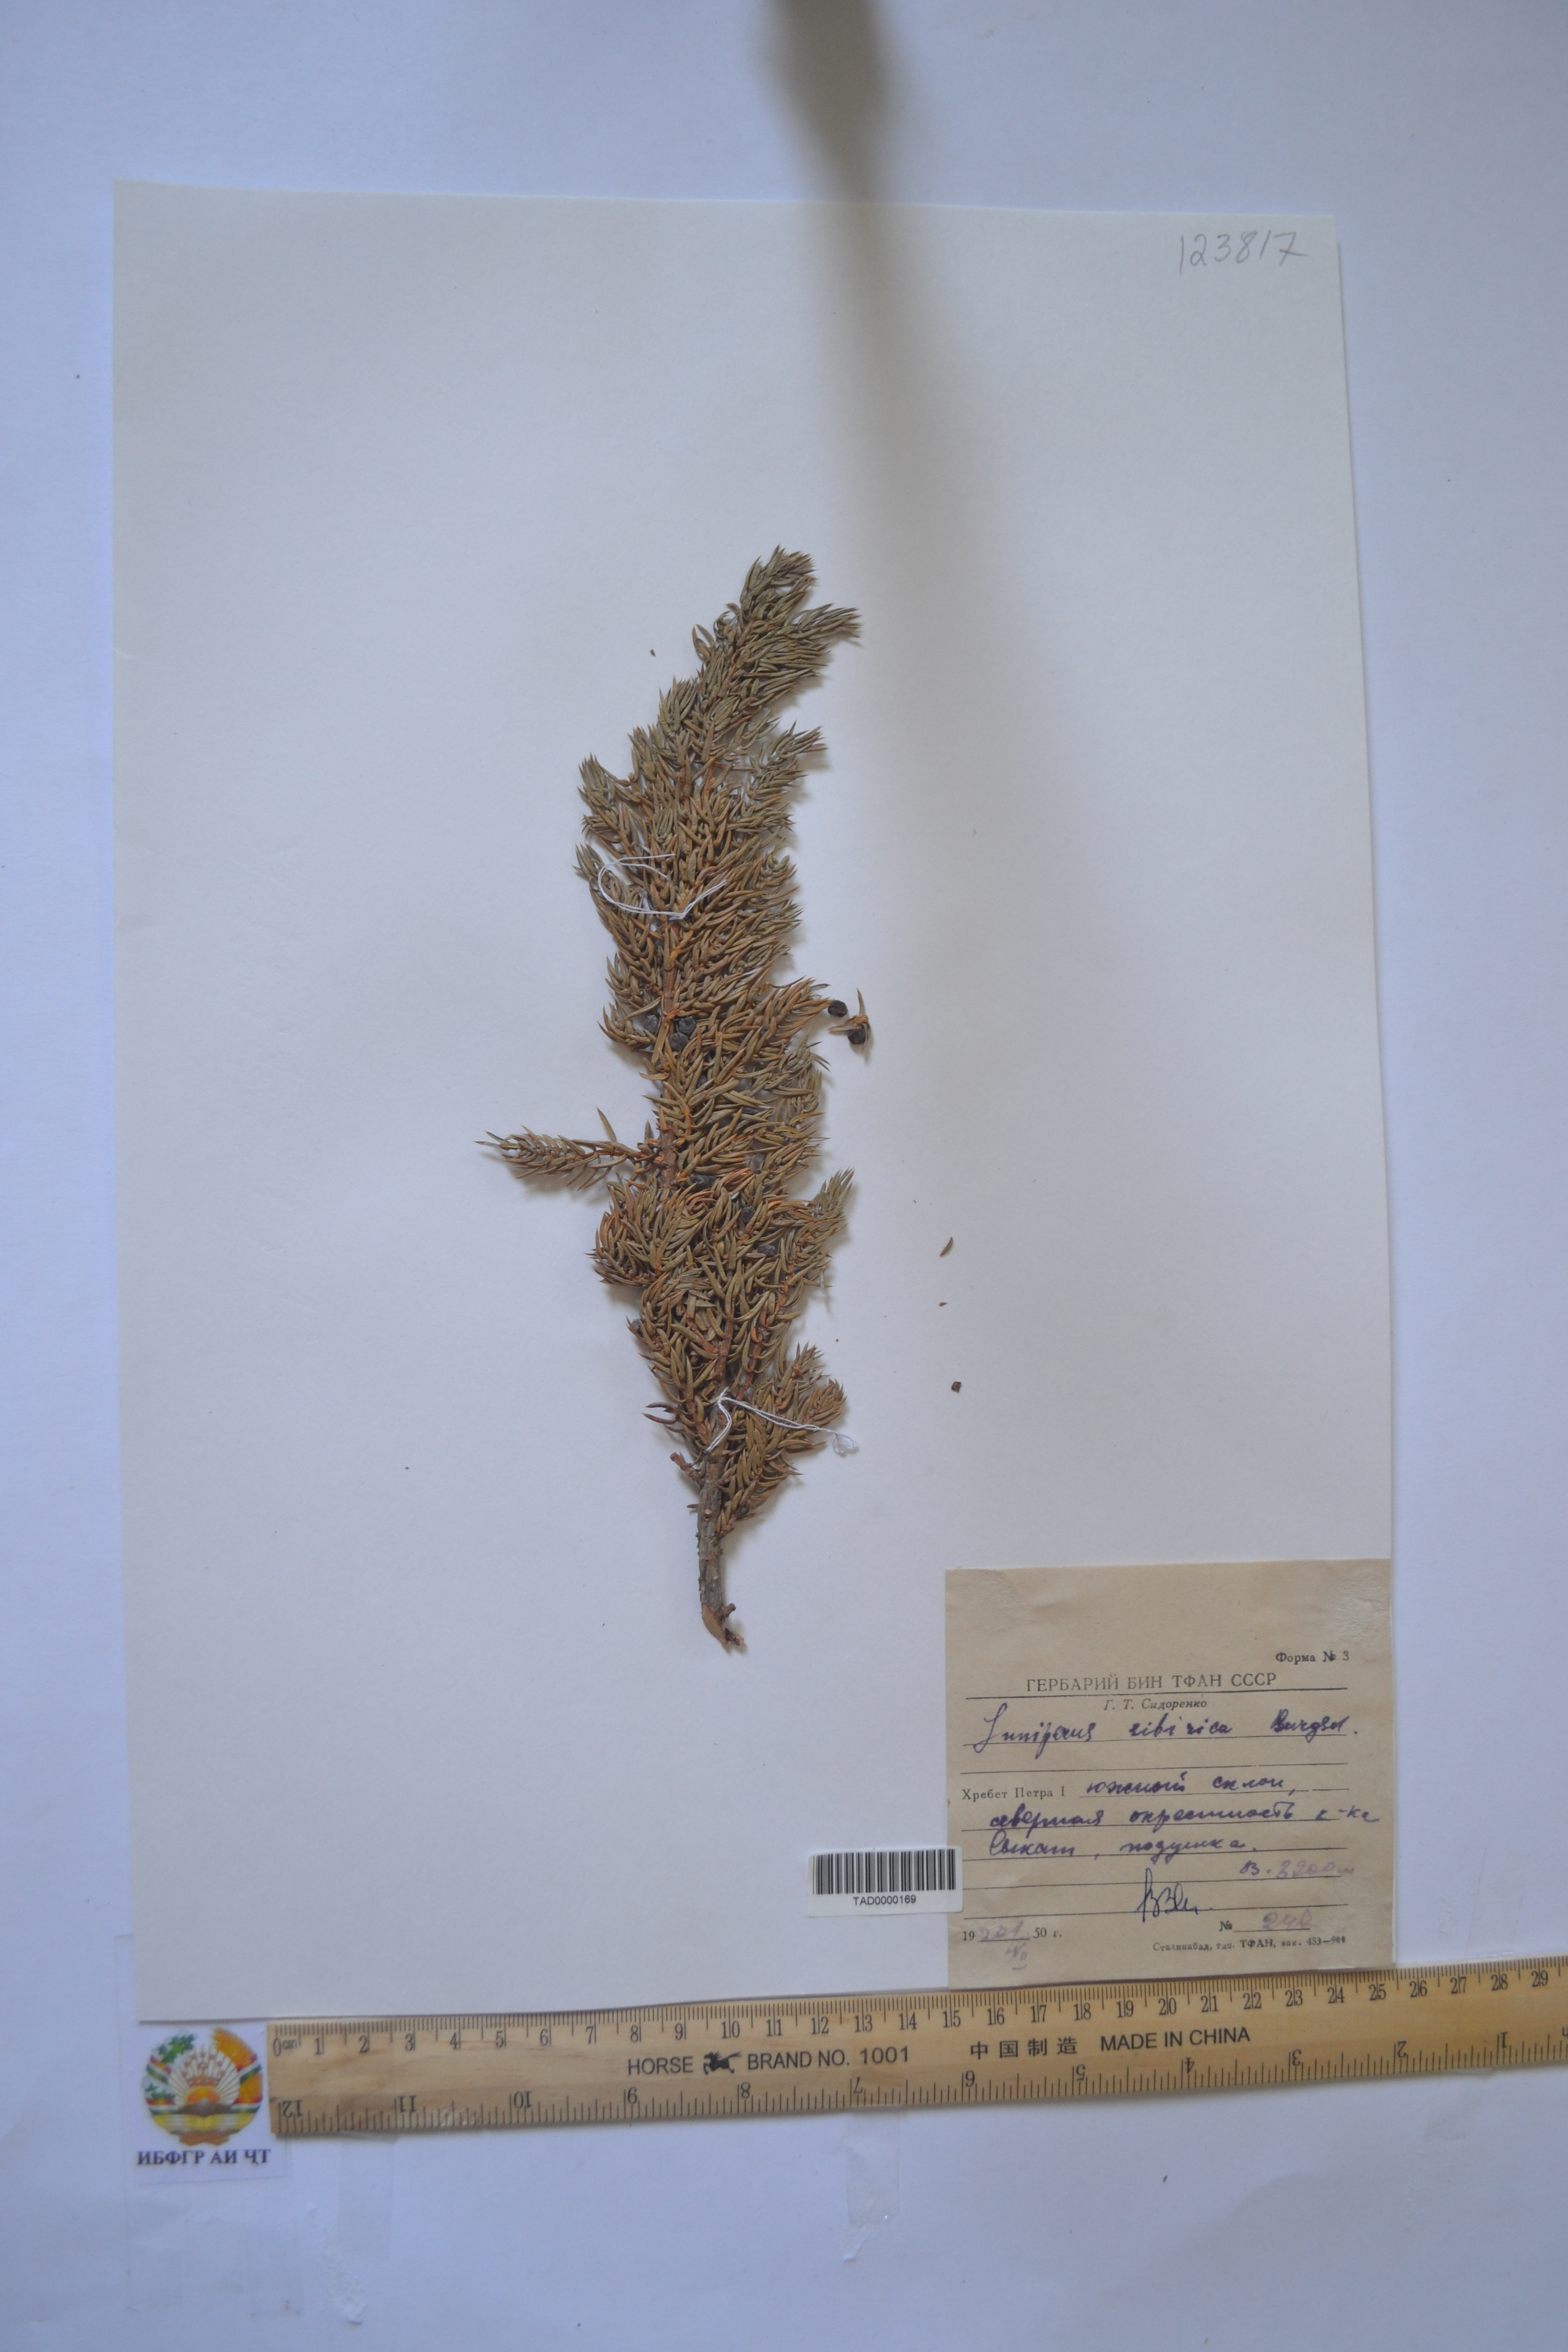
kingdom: Plantae
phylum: Tracheophyta
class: Pinopsida
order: Pinales
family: Cupressaceae
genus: Juniperus
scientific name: Juniperus communis
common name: Common juniper
